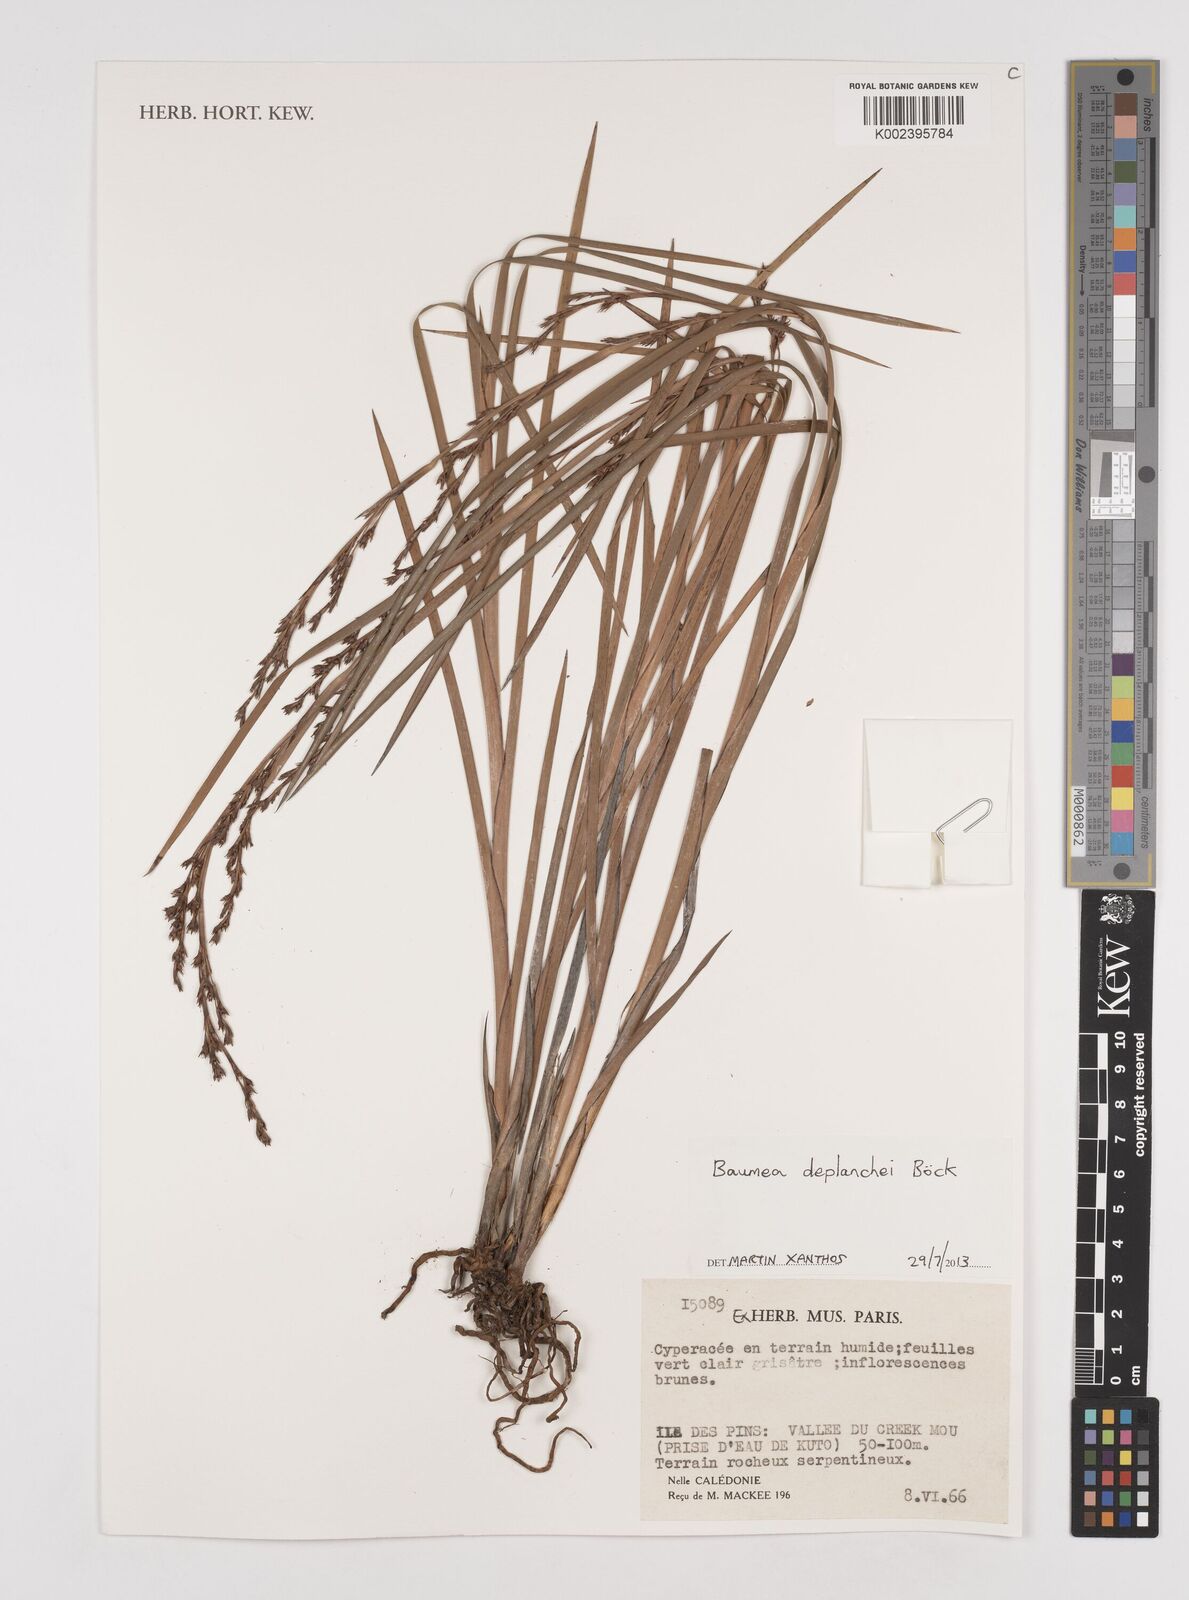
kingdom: Plantae
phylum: Tracheophyta
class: Liliopsida
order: Poales
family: Cyperaceae
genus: Machaerina
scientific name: Machaerina deplanchei
